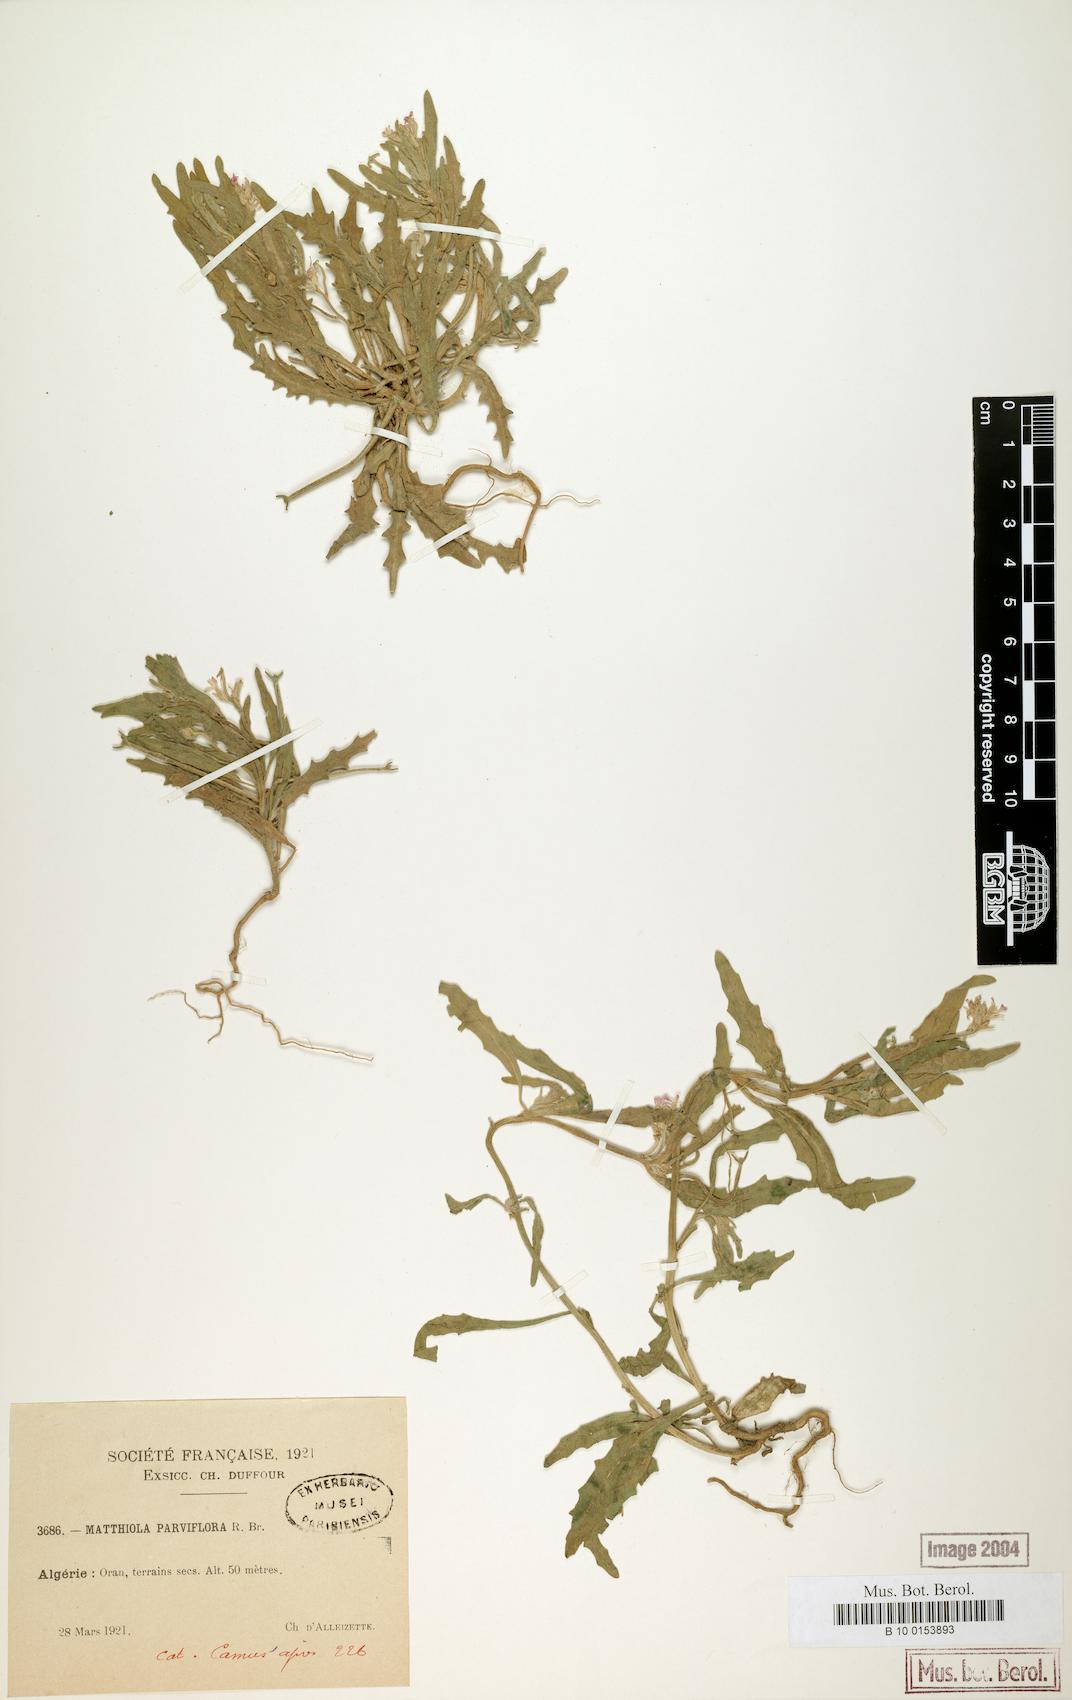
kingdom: Plantae
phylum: Tracheophyta
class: Magnoliopsida
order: Brassicales
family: Brassicaceae
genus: Matthiola
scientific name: Matthiola parviflora
